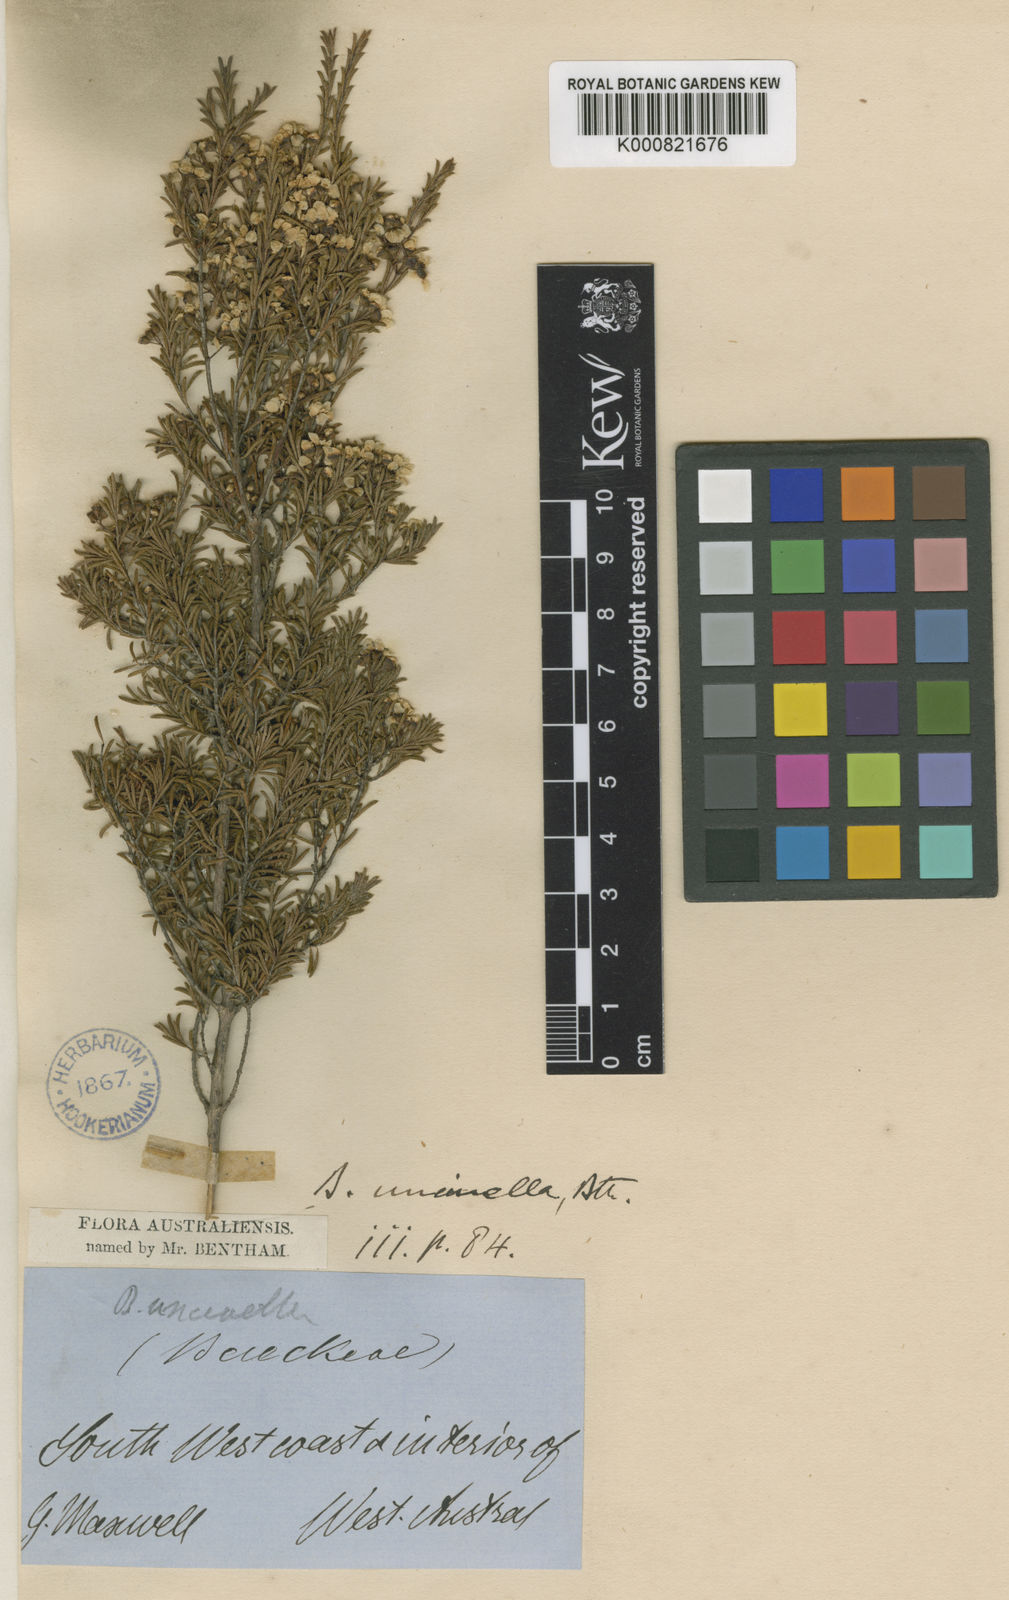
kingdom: Plantae
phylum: Tracheophyta
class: Magnoliopsida
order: Myrtales
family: Myrtaceae
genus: Austrobaeckea
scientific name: Austrobaeckea uncinella
